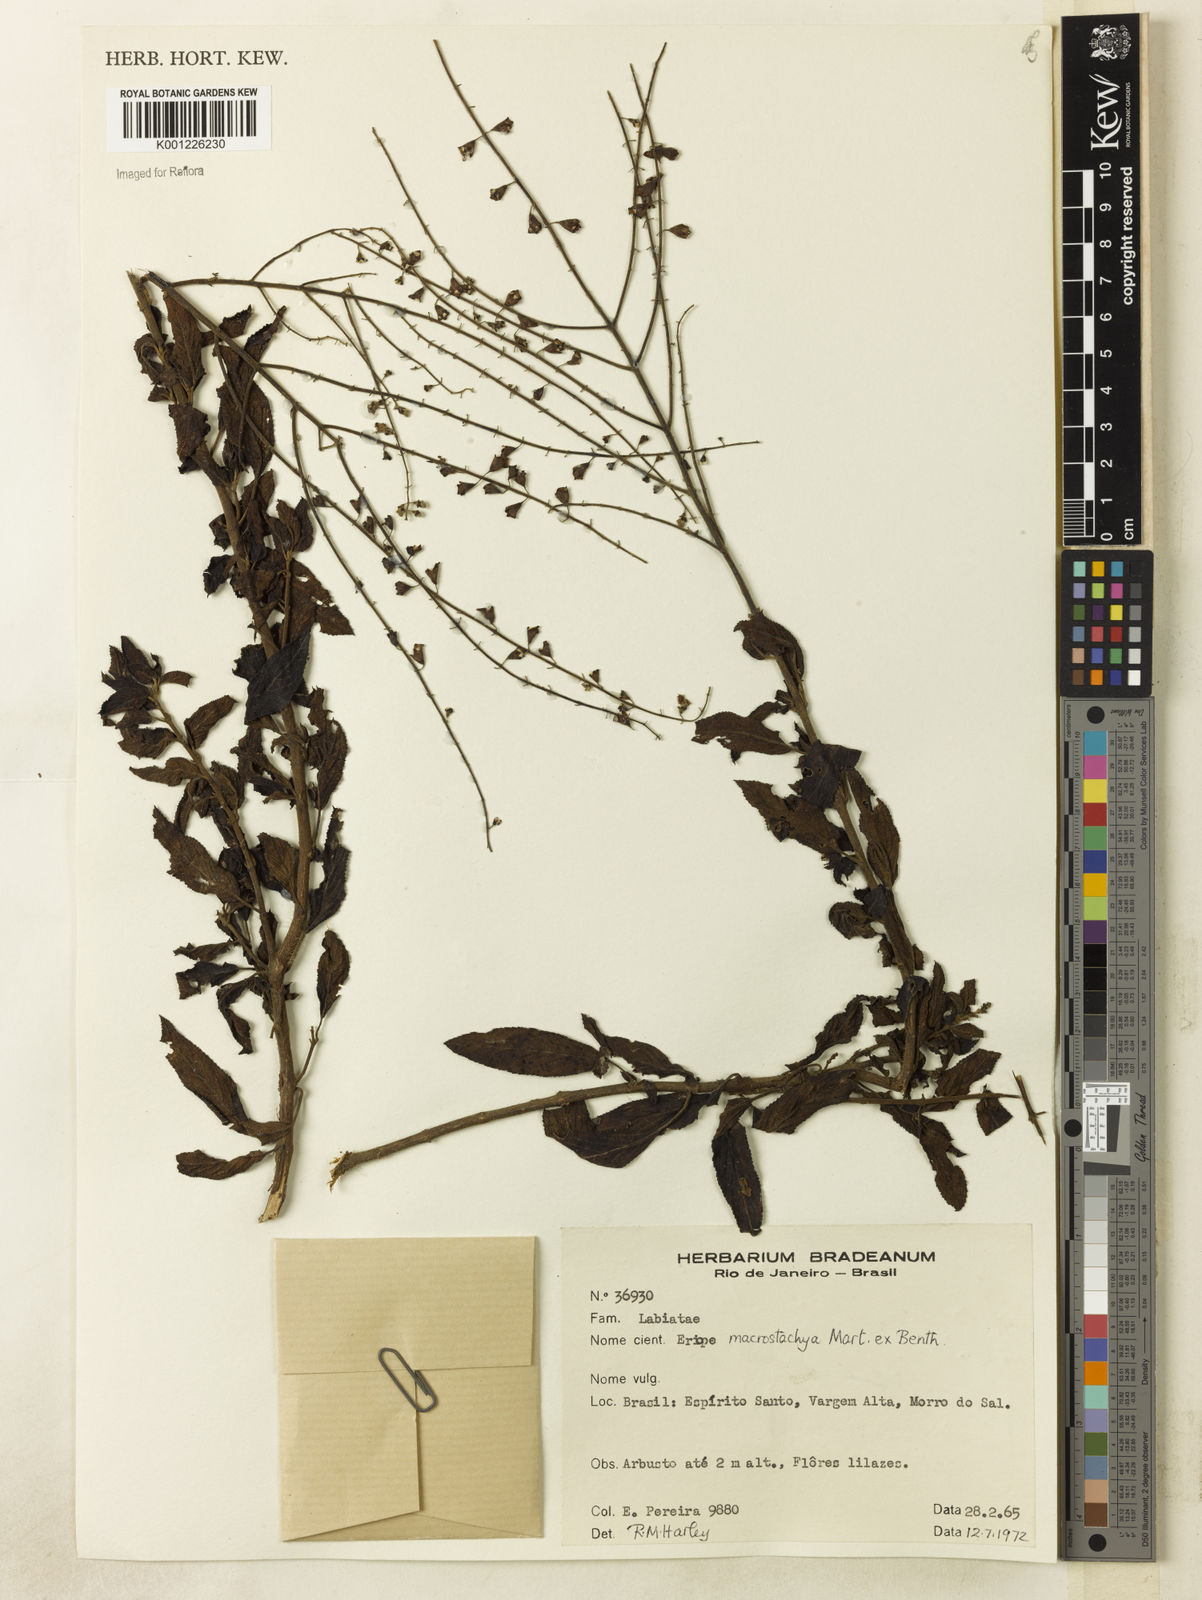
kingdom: Plantae
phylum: Tracheophyta
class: Magnoliopsida
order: Lamiales
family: Lamiaceae
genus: Eriope
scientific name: Eriope macrostachya
